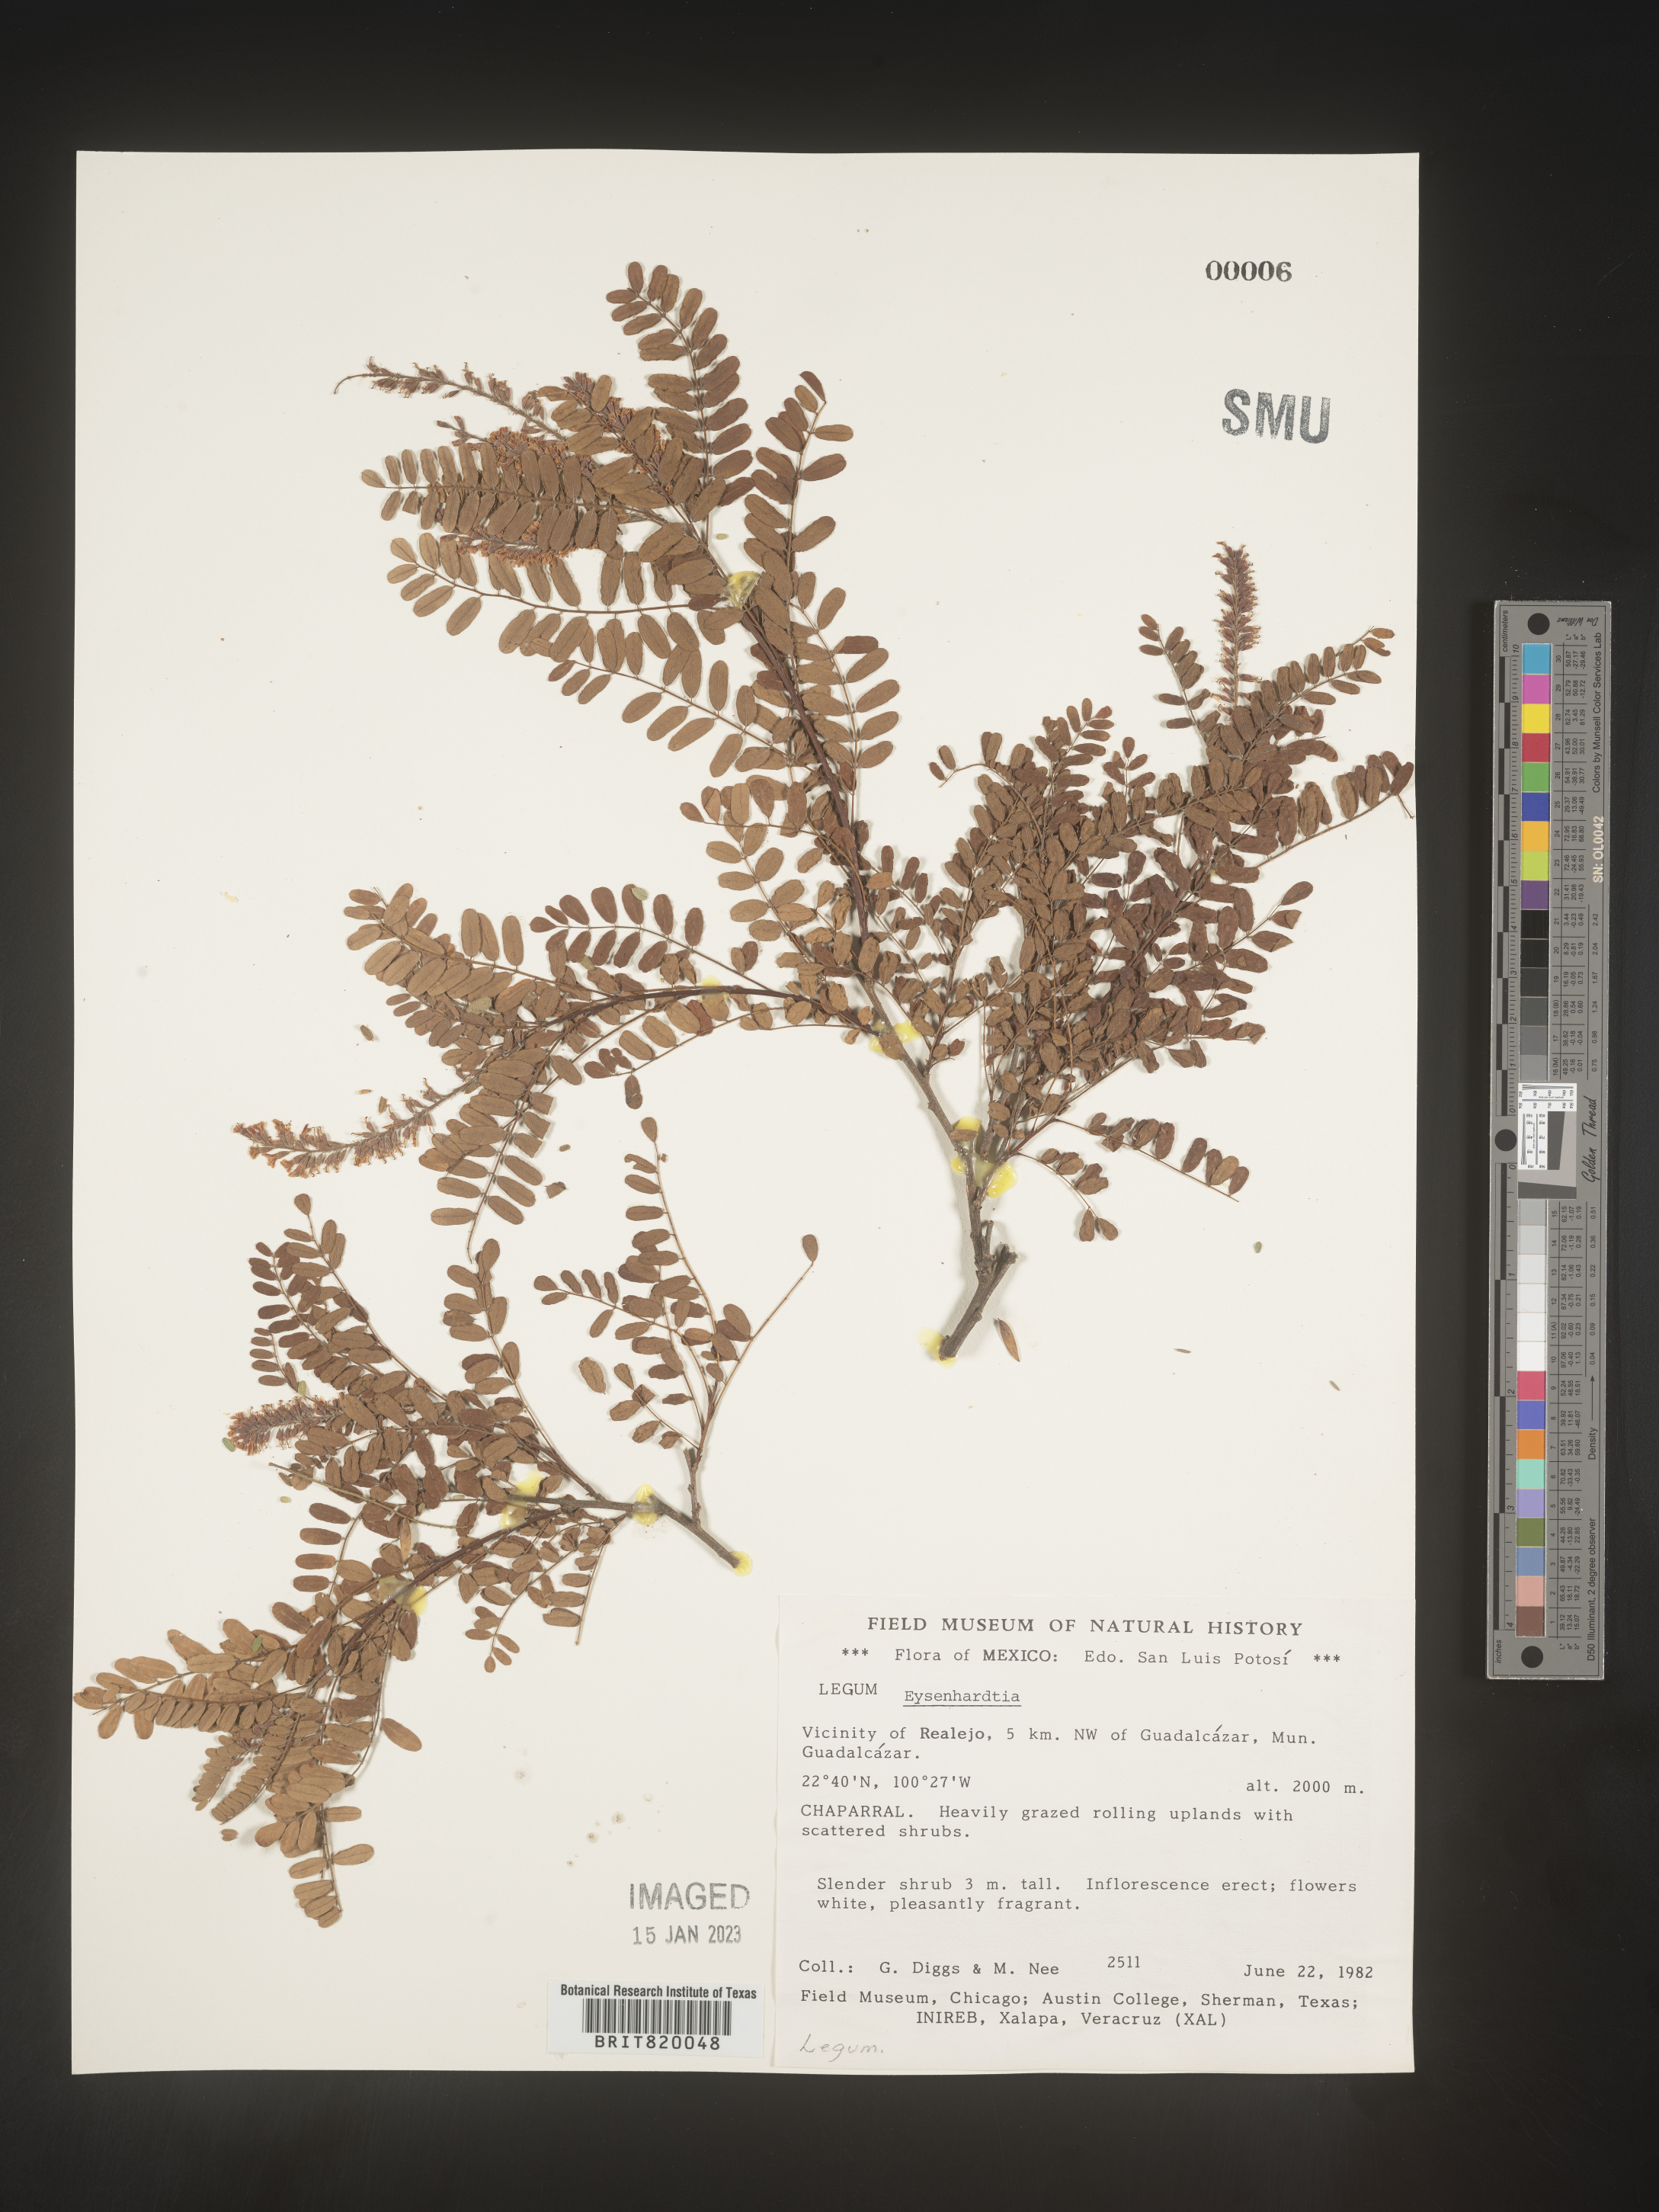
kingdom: Plantae
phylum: Tracheophyta
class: Magnoliopsida
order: Fabales
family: Fabaceae
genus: Eysenhardtia
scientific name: Eysenhardtia
